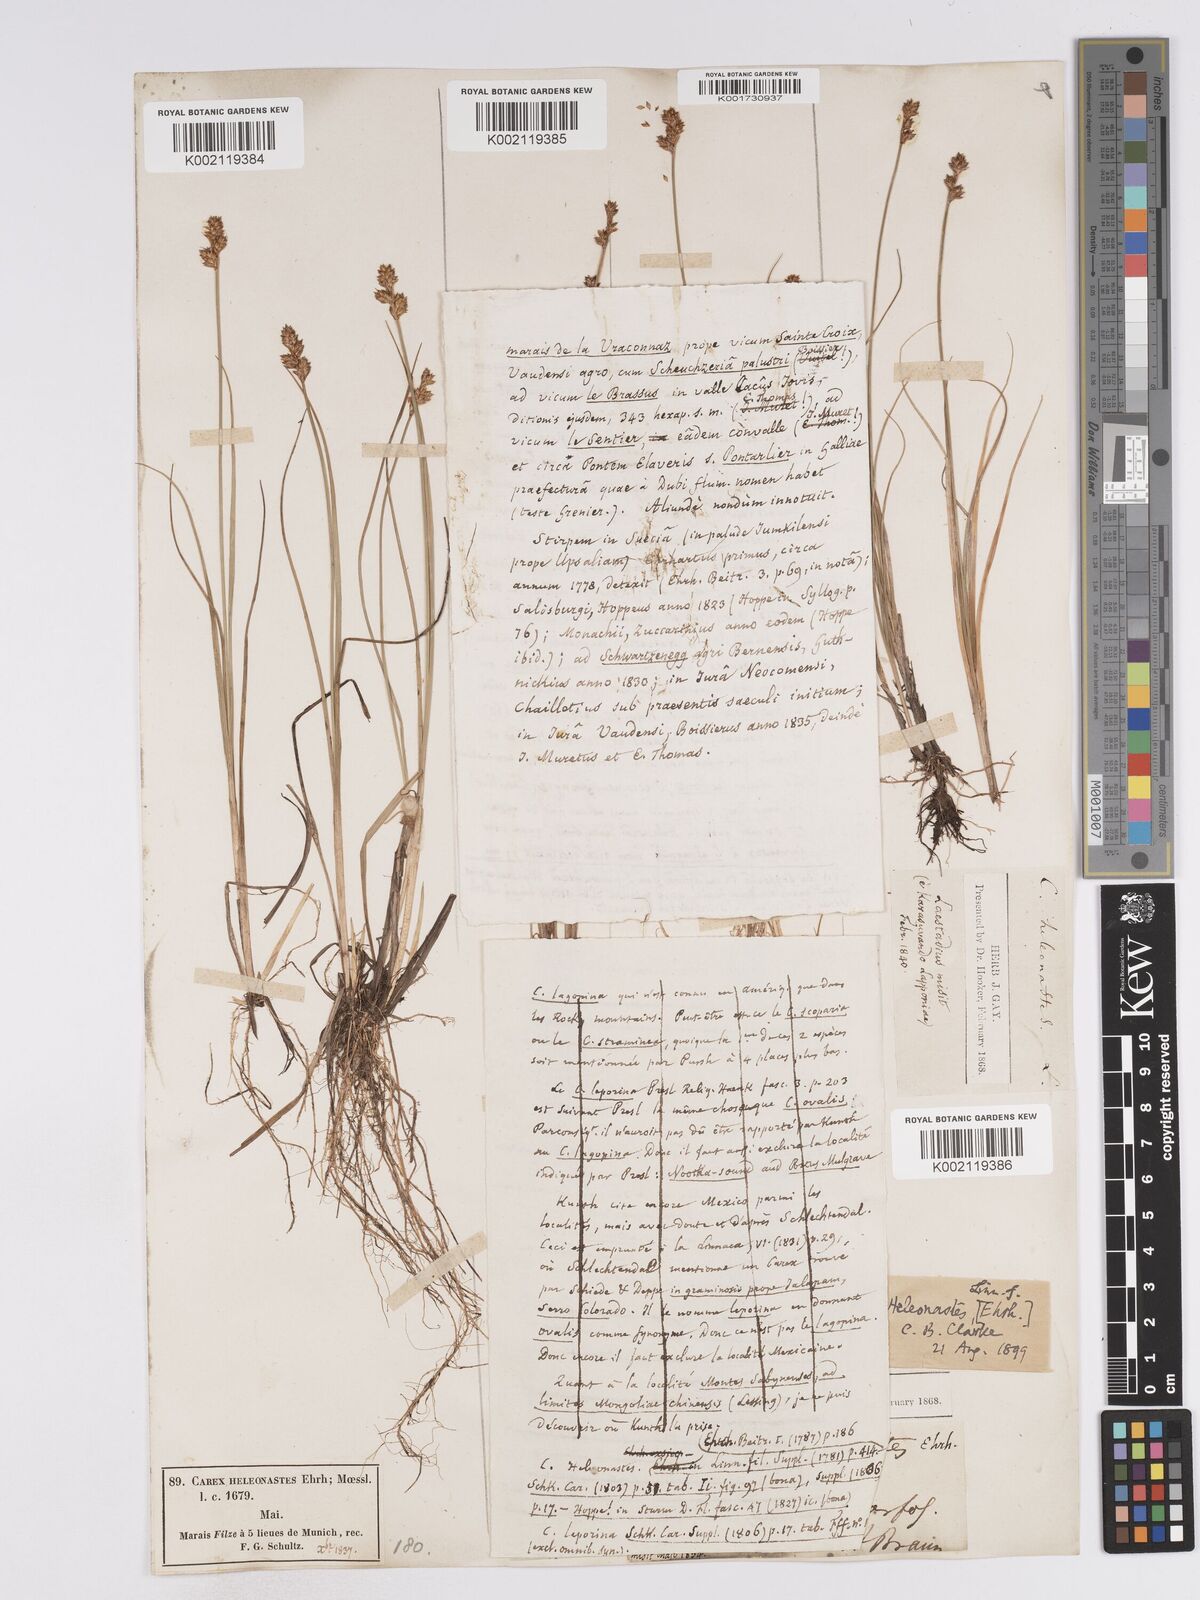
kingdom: Plantae
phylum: Tracheophyta
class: Liliopsida
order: Poales
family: Cyperaceae
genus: Carex
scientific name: Carex heleonastes
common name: Hudson bay sedge
